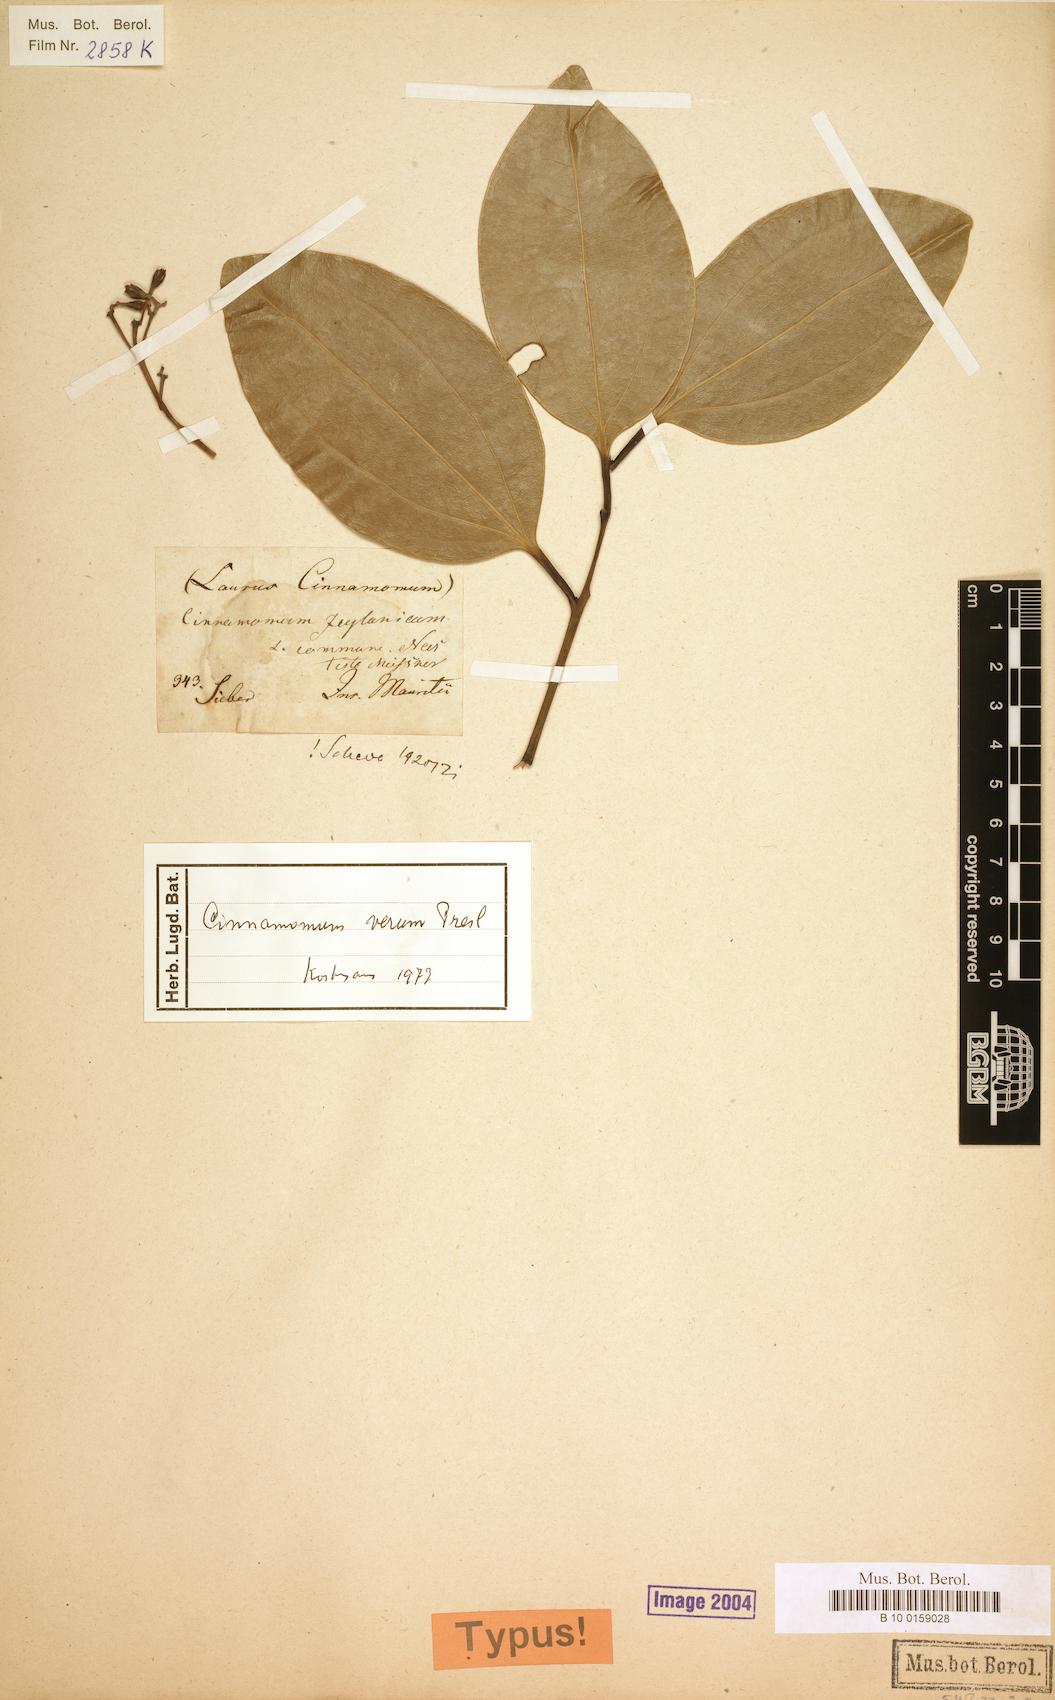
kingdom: Plantae
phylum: Tracheophyta
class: Magnoliopsida
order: Laurales
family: Lauraceae
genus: Cinnamomum
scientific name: Cinnamomum verum
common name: Cinnamon
